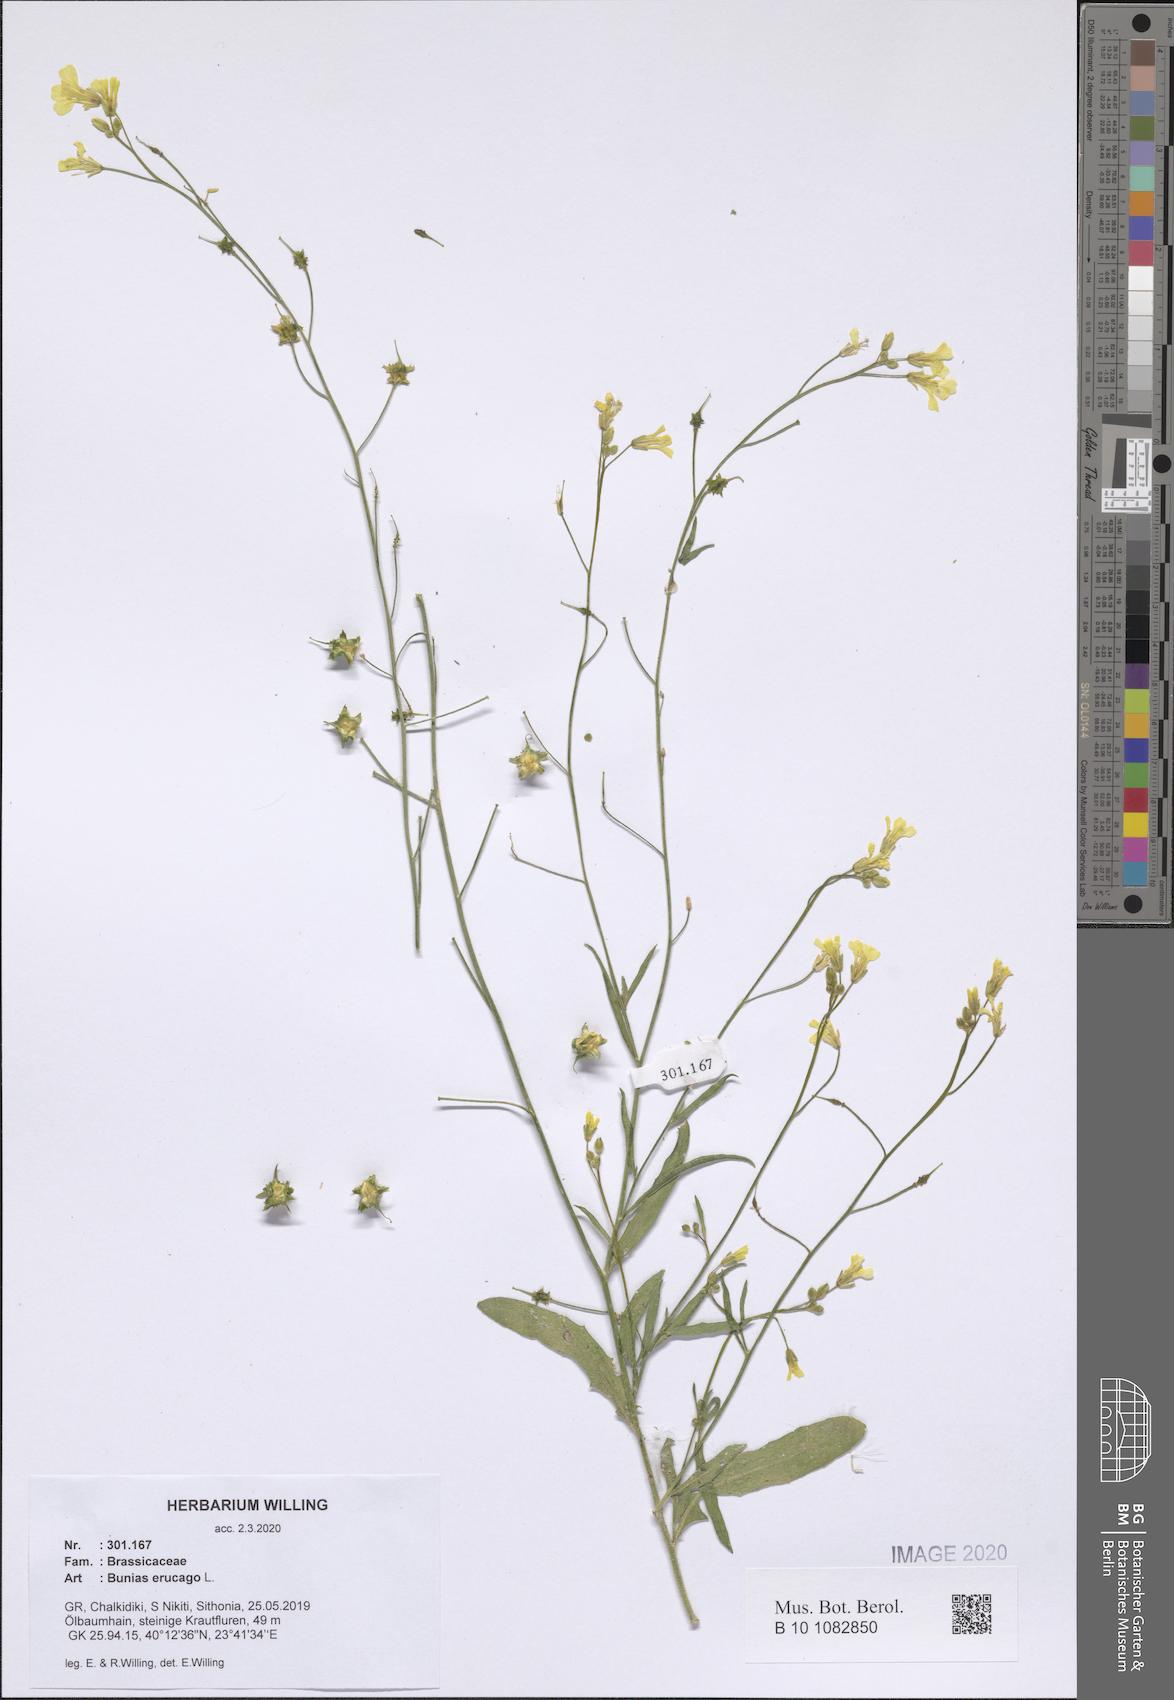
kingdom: Plantae
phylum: Tracheophyta
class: Magnoliopsida
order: Brassicales
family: Brassicaceae
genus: Bunias
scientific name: Bunias erucago
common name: Southern warty-cabbage
